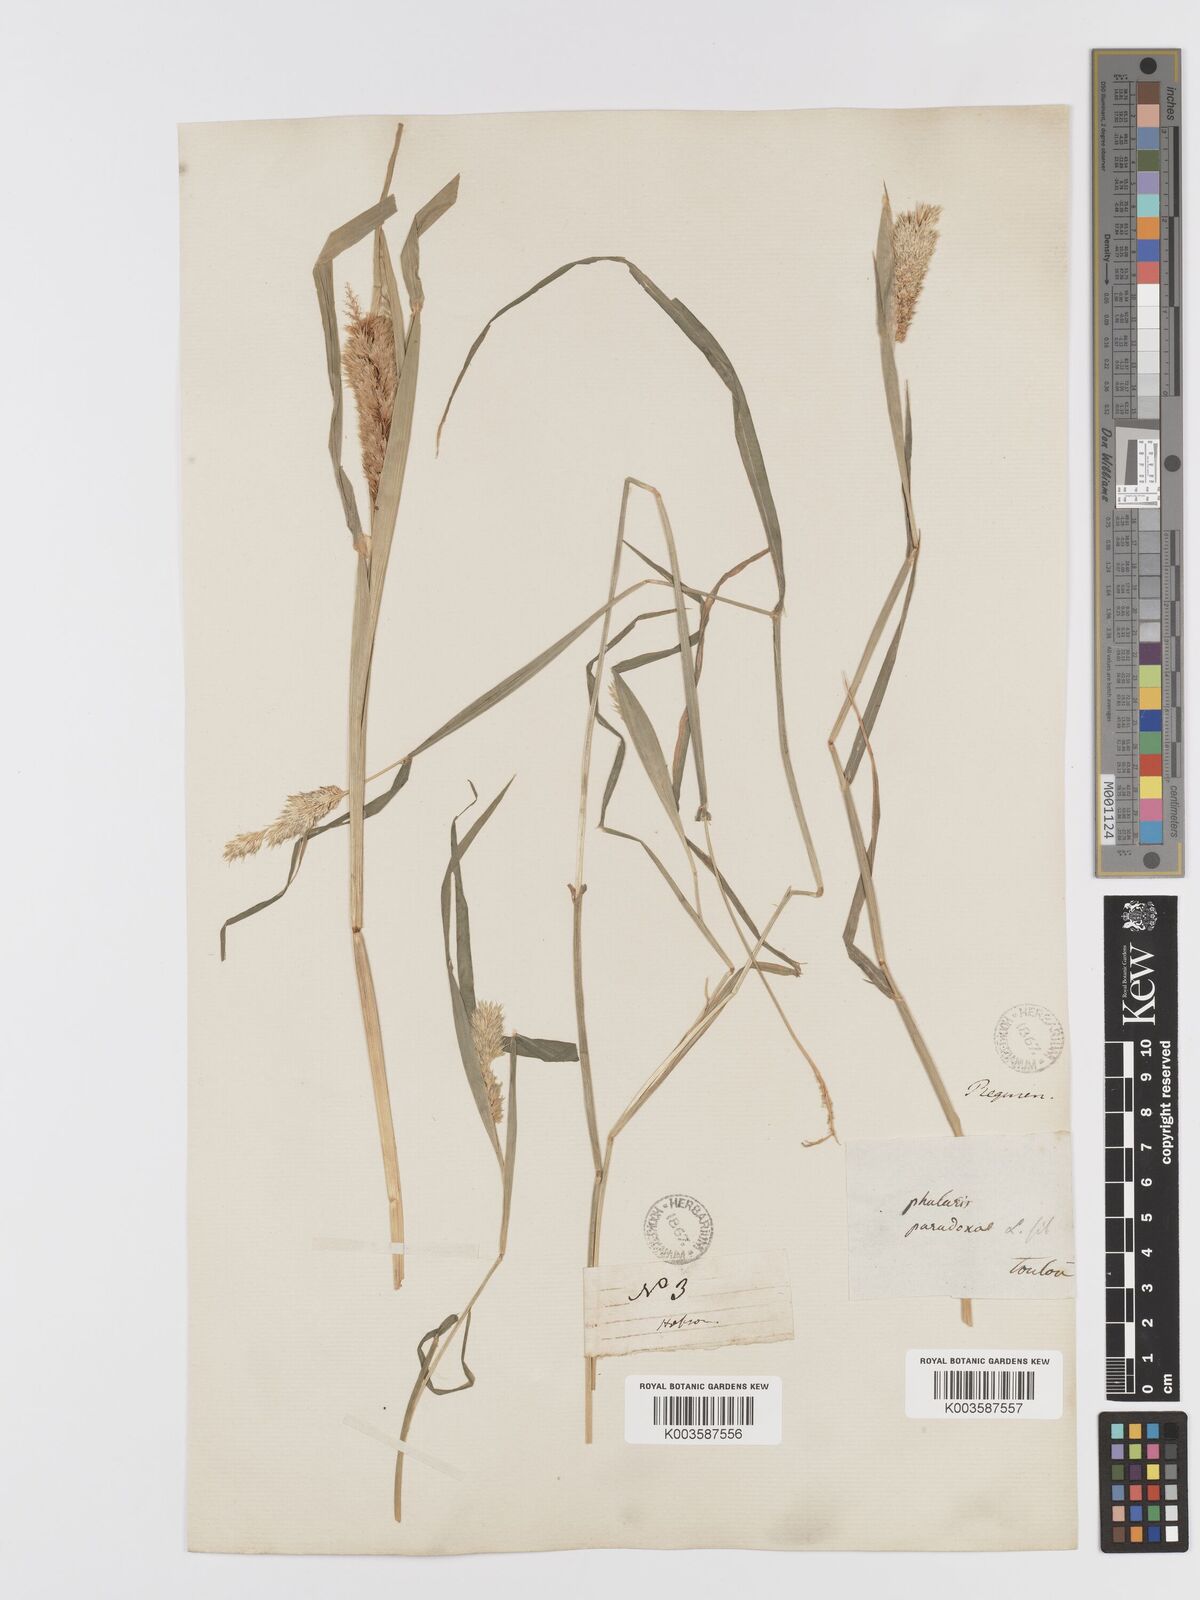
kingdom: Plantae
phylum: Tracheophyta
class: Liliopsida
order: Poales
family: Poaceae
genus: Phalaris
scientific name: Phalaris paradoxa
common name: Awned canary-grass
